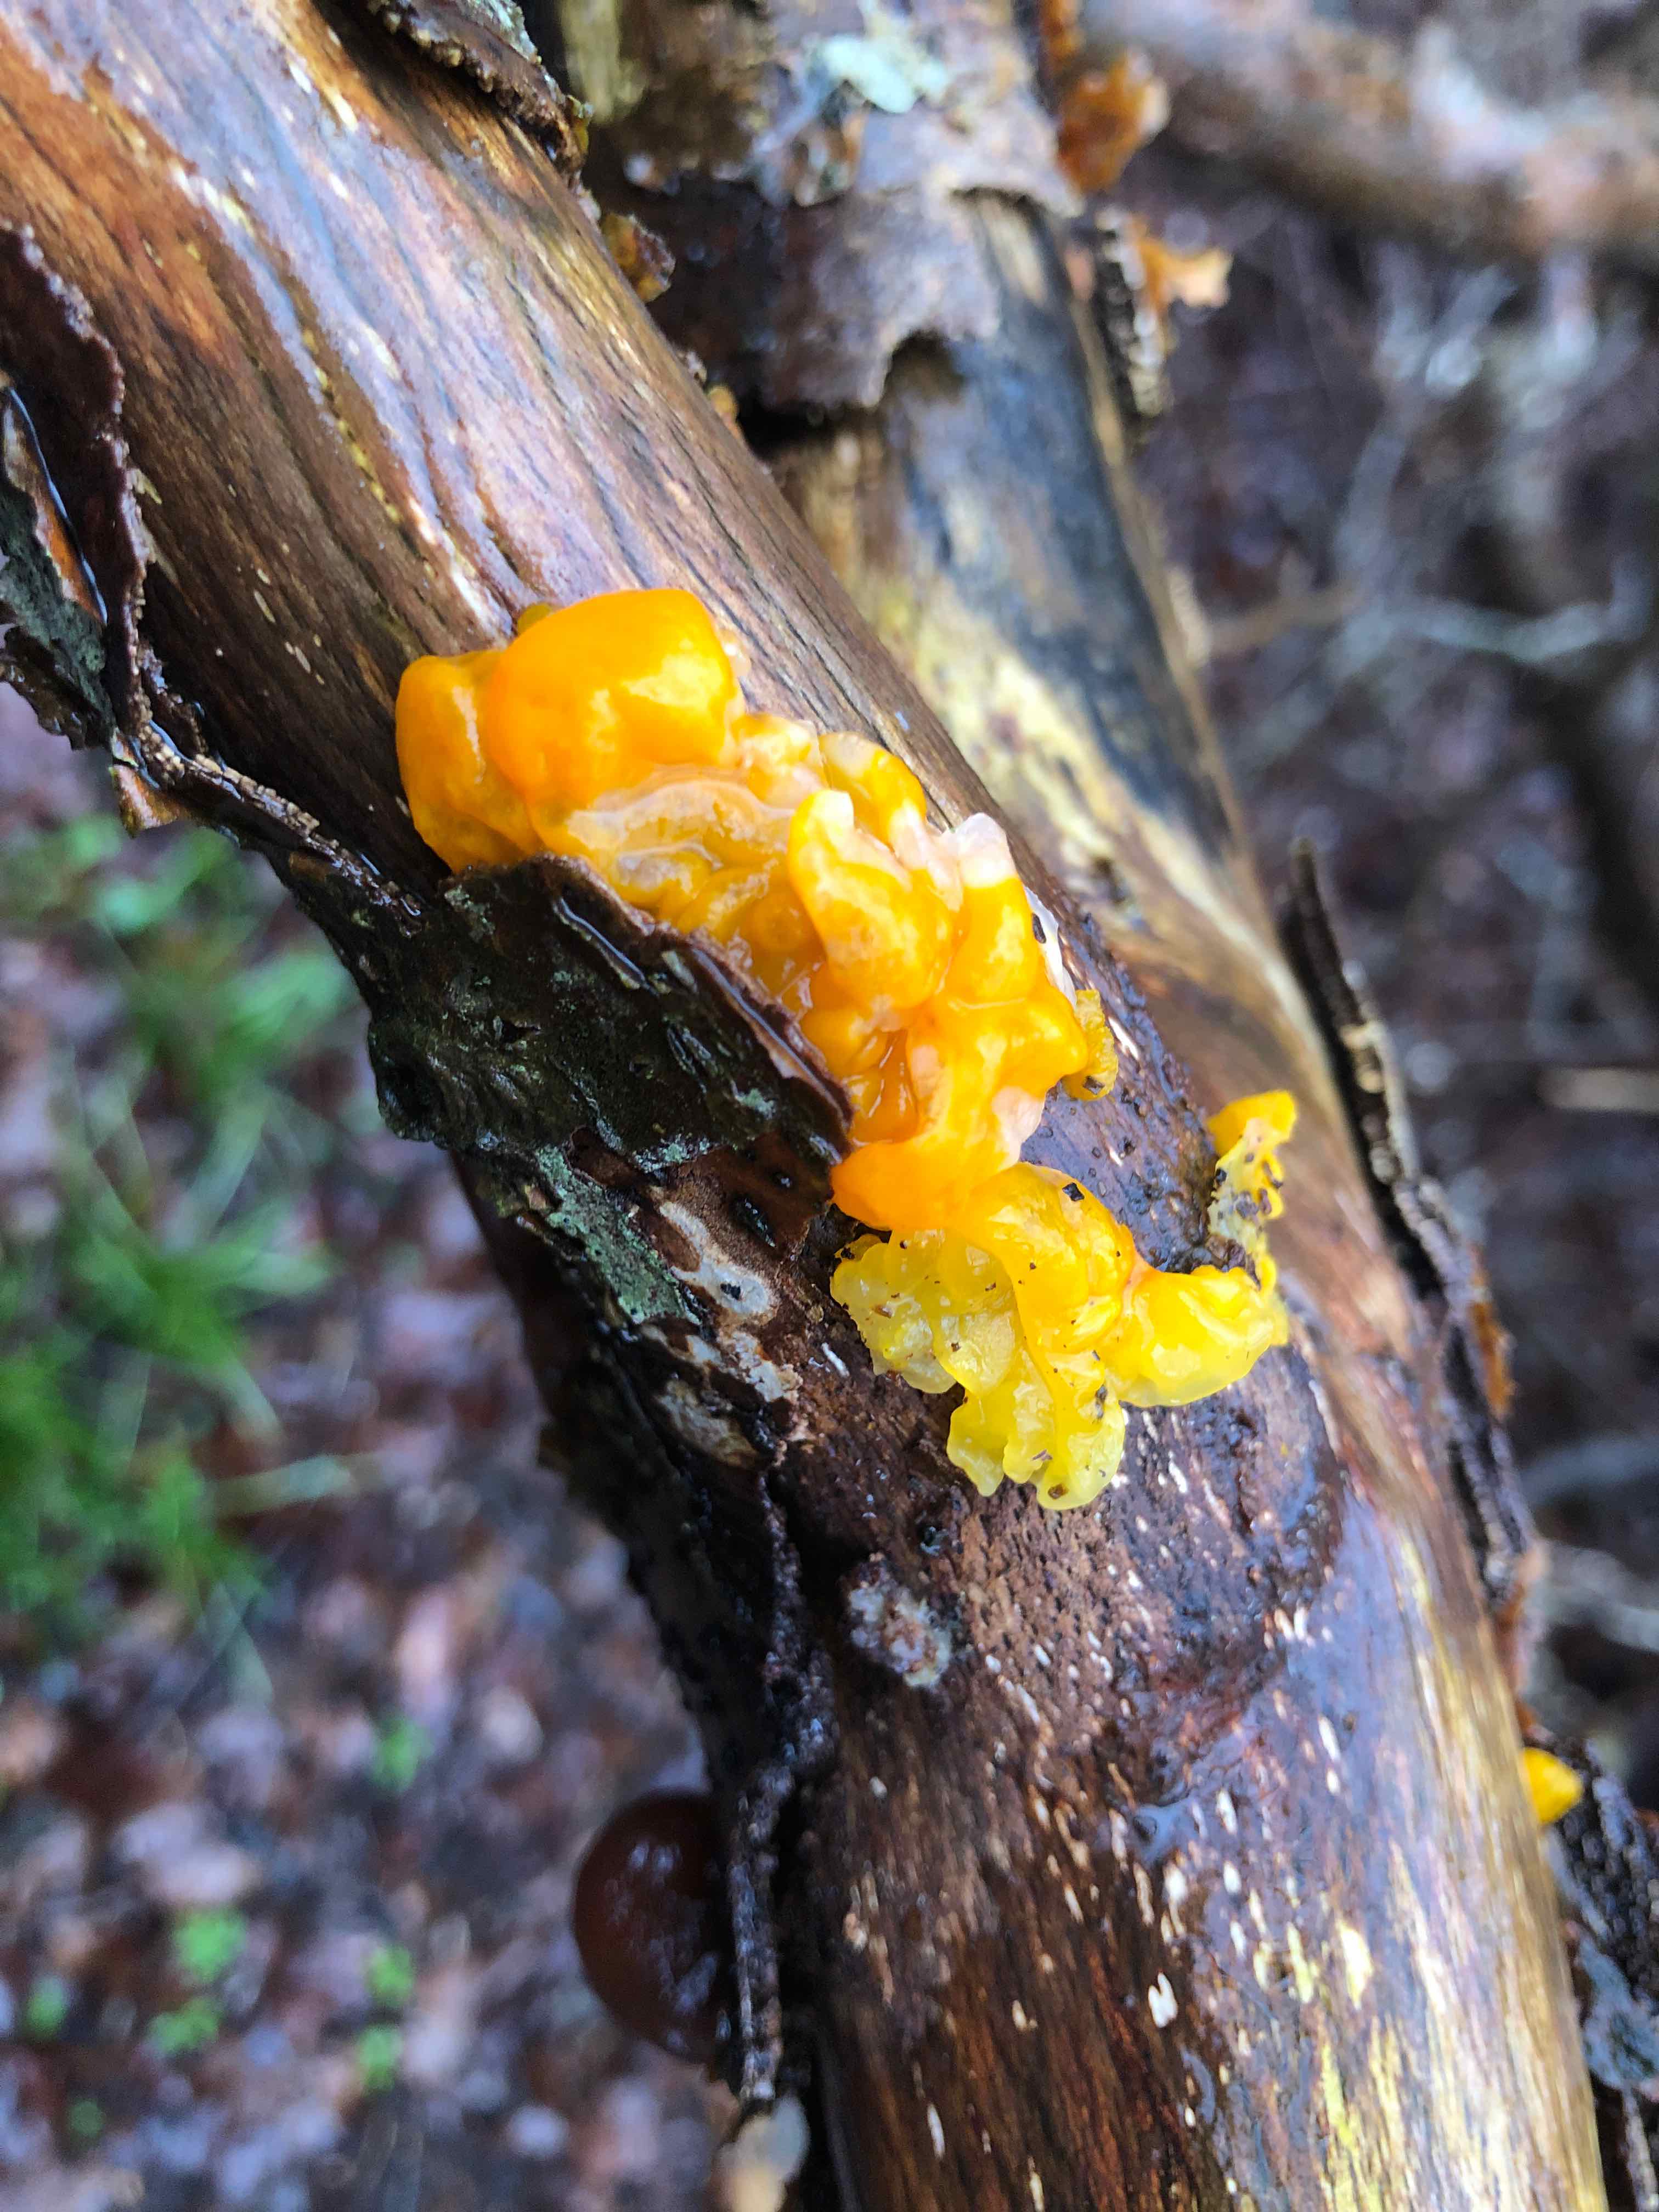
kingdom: Fungi
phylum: Basidiomycota
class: Tremellomycetes
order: Tremellales
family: Tremellaceae
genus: Tremella
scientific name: Tremella mesenterica
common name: gul bævresvamp
